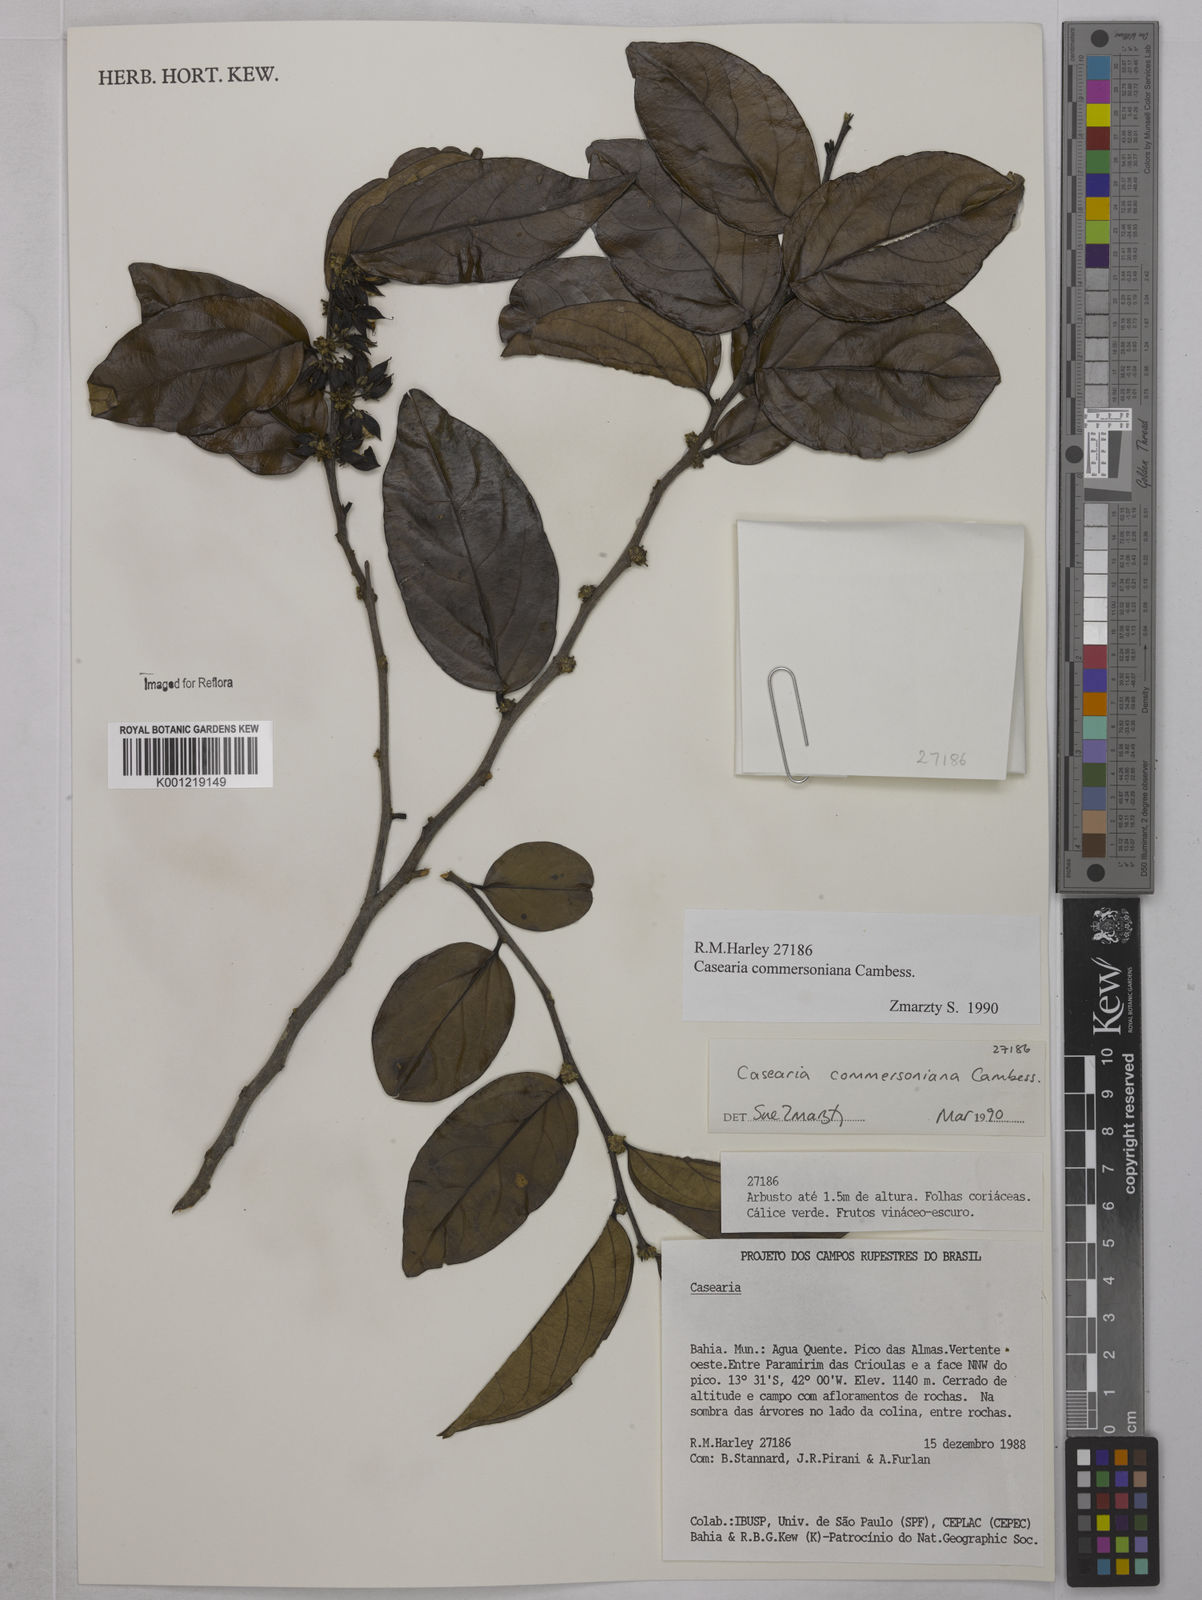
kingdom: Plantae
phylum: Tracheophyta
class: Magnoliopsida
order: Malpighiales
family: Salicaceae
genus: Piparea
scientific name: Piparea dentata
